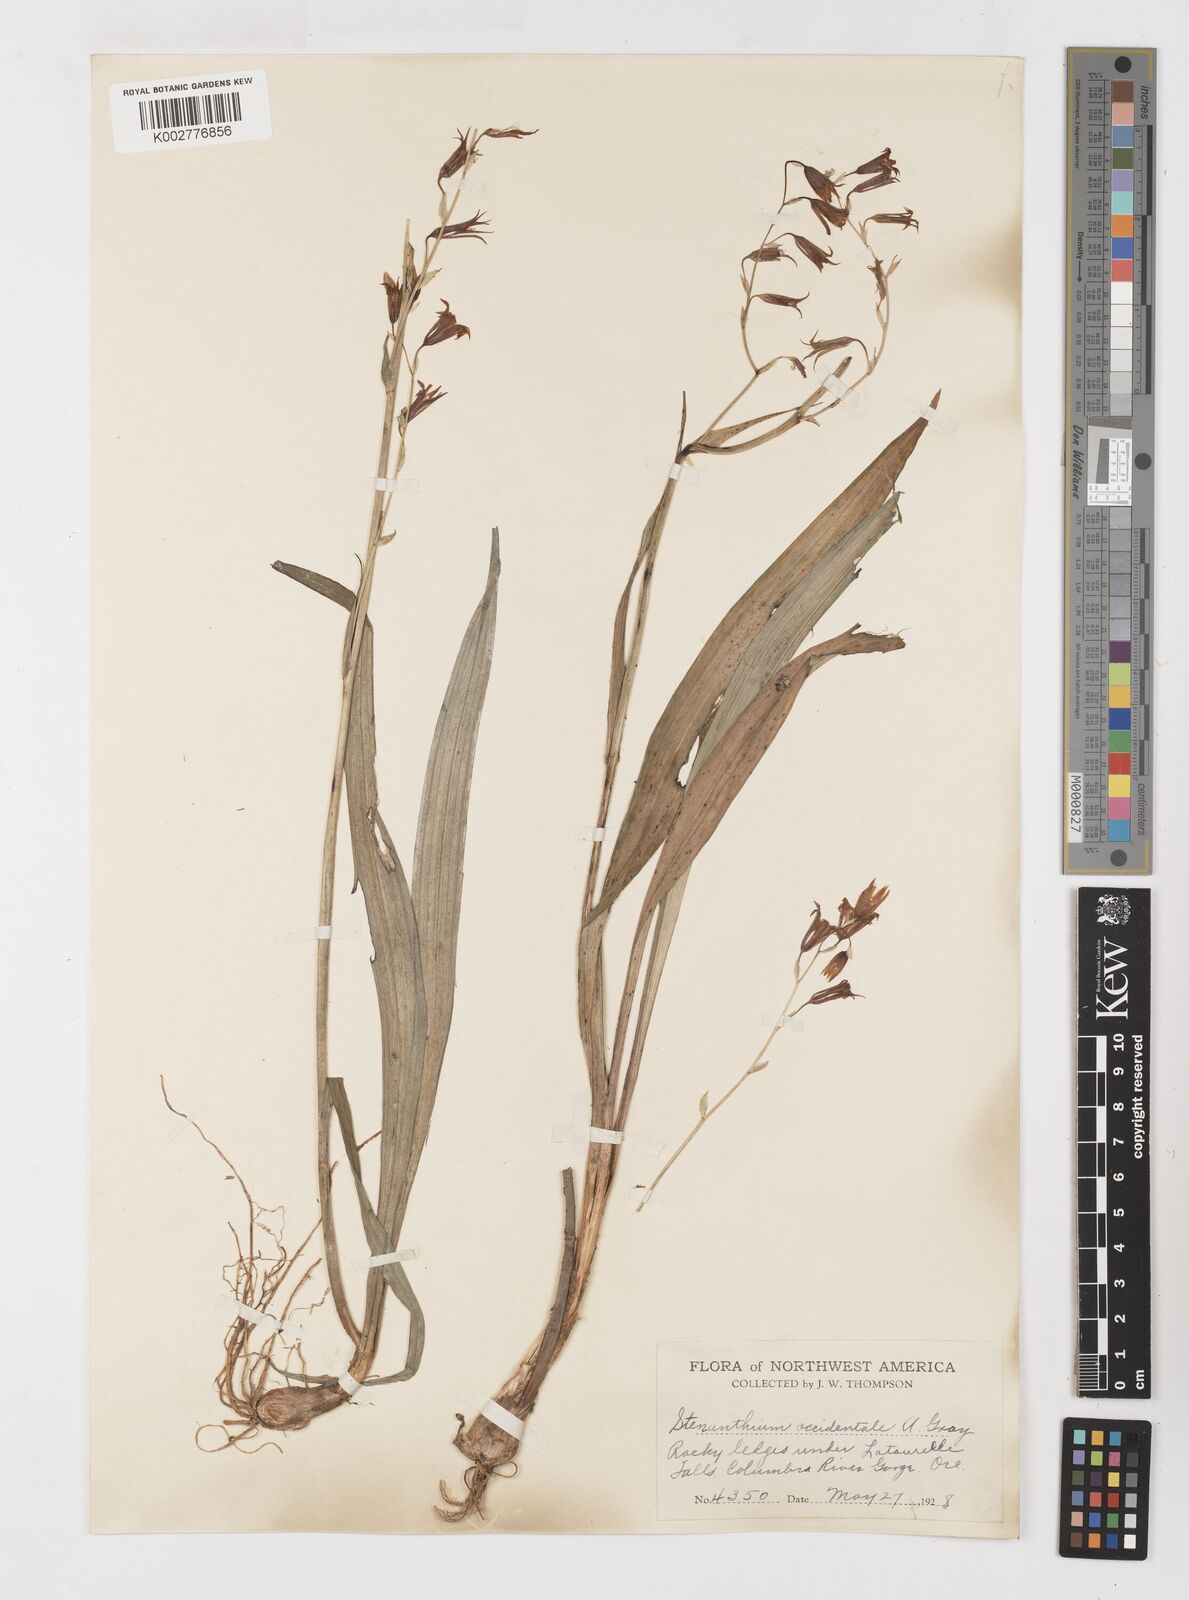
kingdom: Plantae
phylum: Tracheophyta
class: Liliopsida
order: Liliales
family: Melanthiaceae
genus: Anticlea
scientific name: Anticlea occidentalis
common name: Bronze-bells
